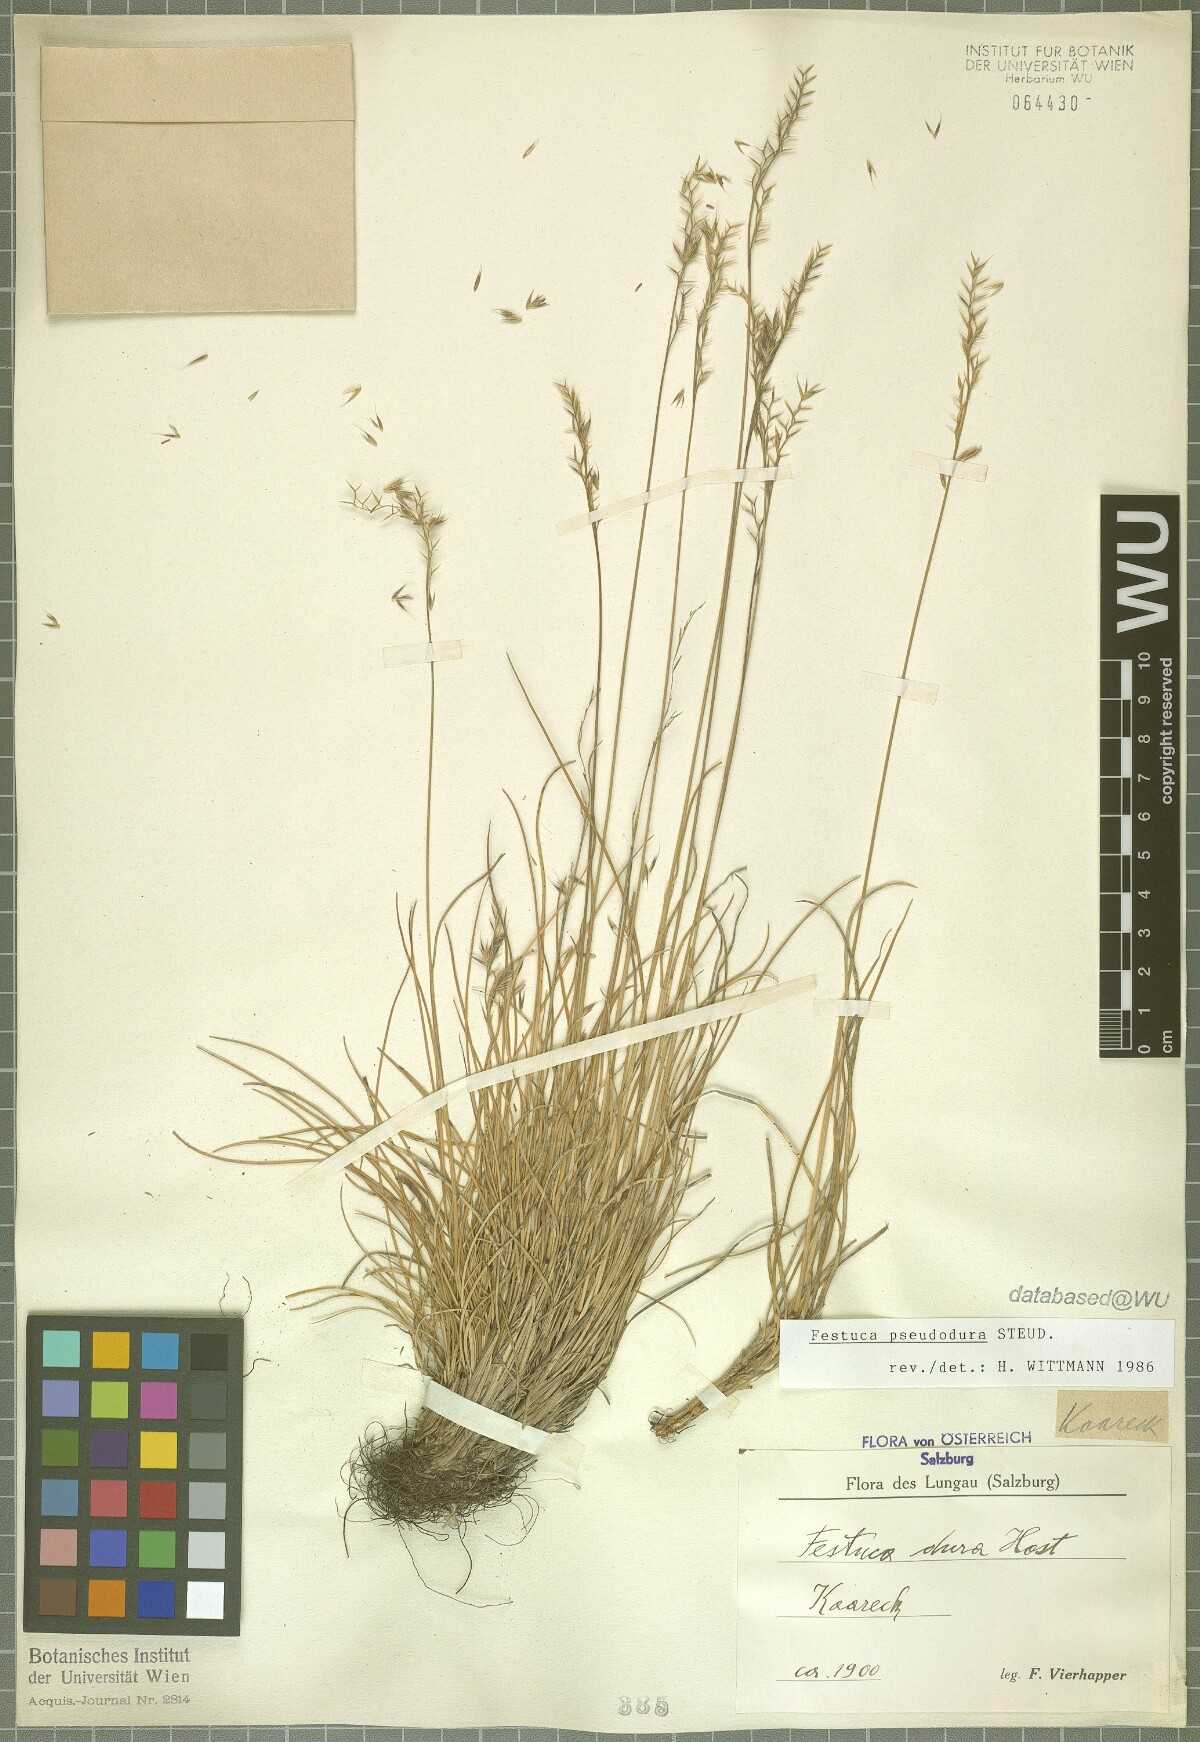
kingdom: Plantae
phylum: Tracheophyta
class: Liliopsida
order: Poales
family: Poaceae
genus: Festuca
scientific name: Festuca pseudodura
